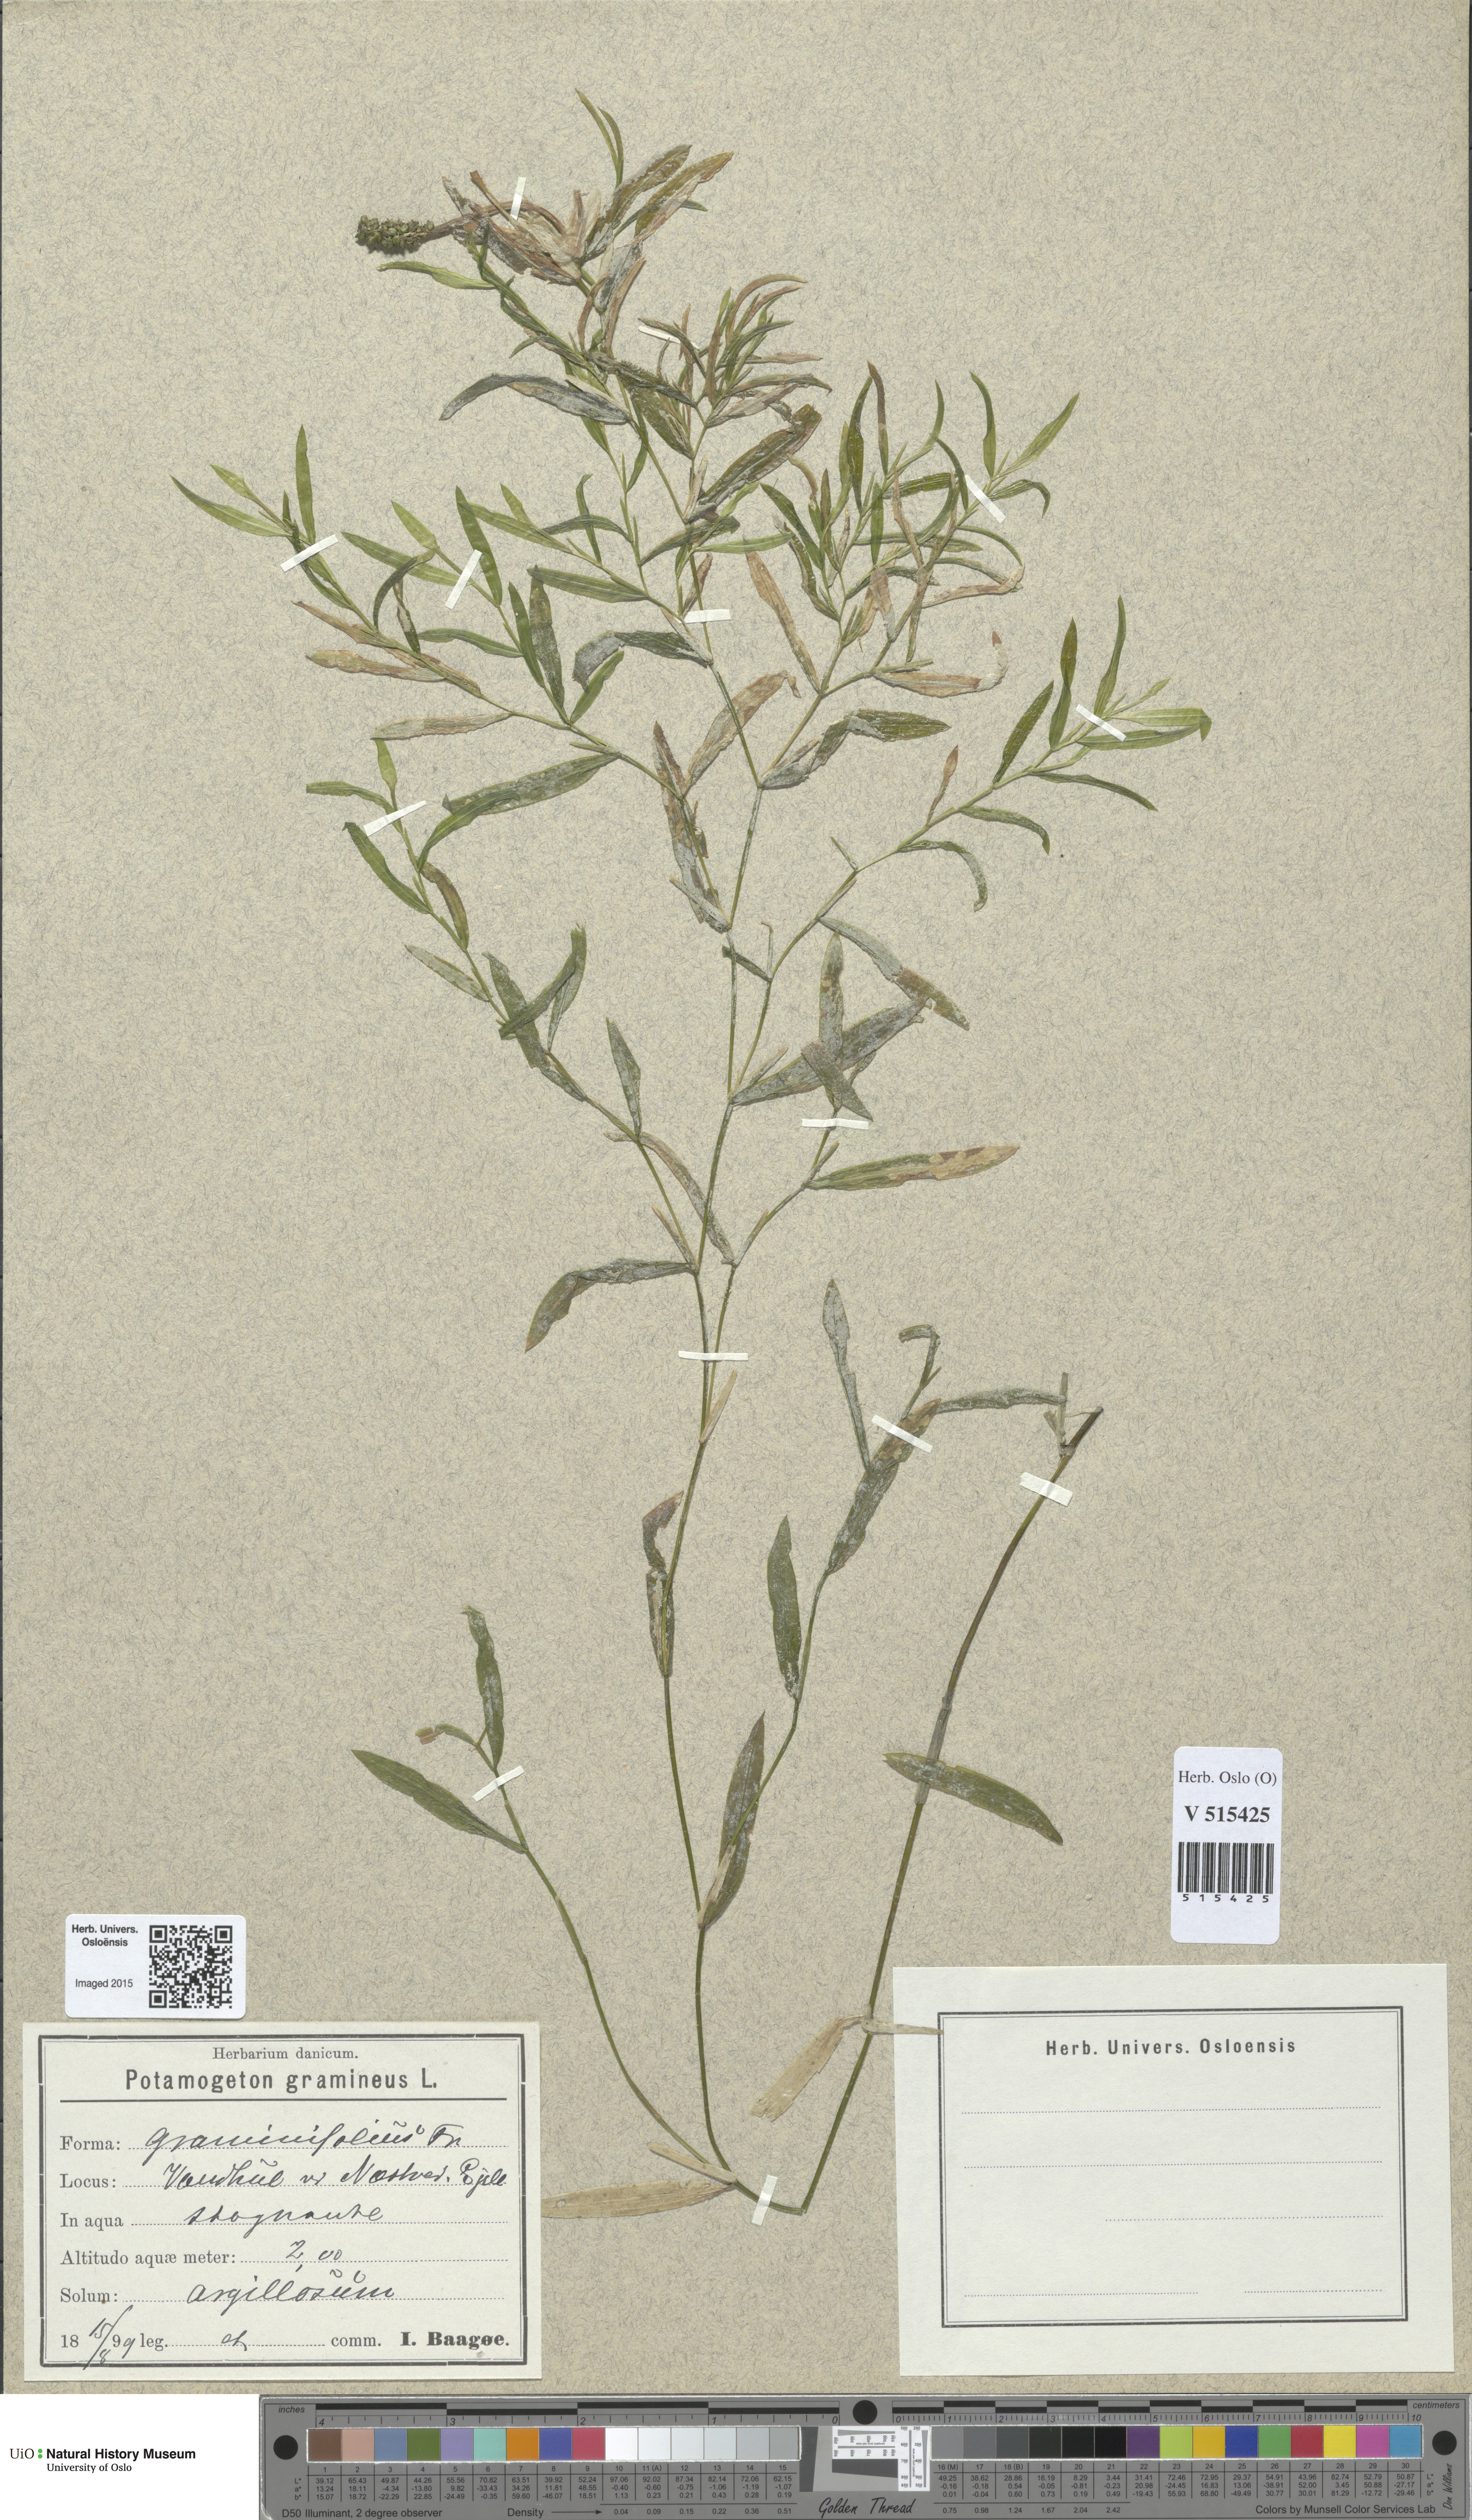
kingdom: Plantae
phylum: Tracheophyta
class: Liliopsida
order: Alismatales
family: Potamogetonaceae
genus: Potamogeton
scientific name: Potamogeton gramineus
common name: Various-leaved pondweed
